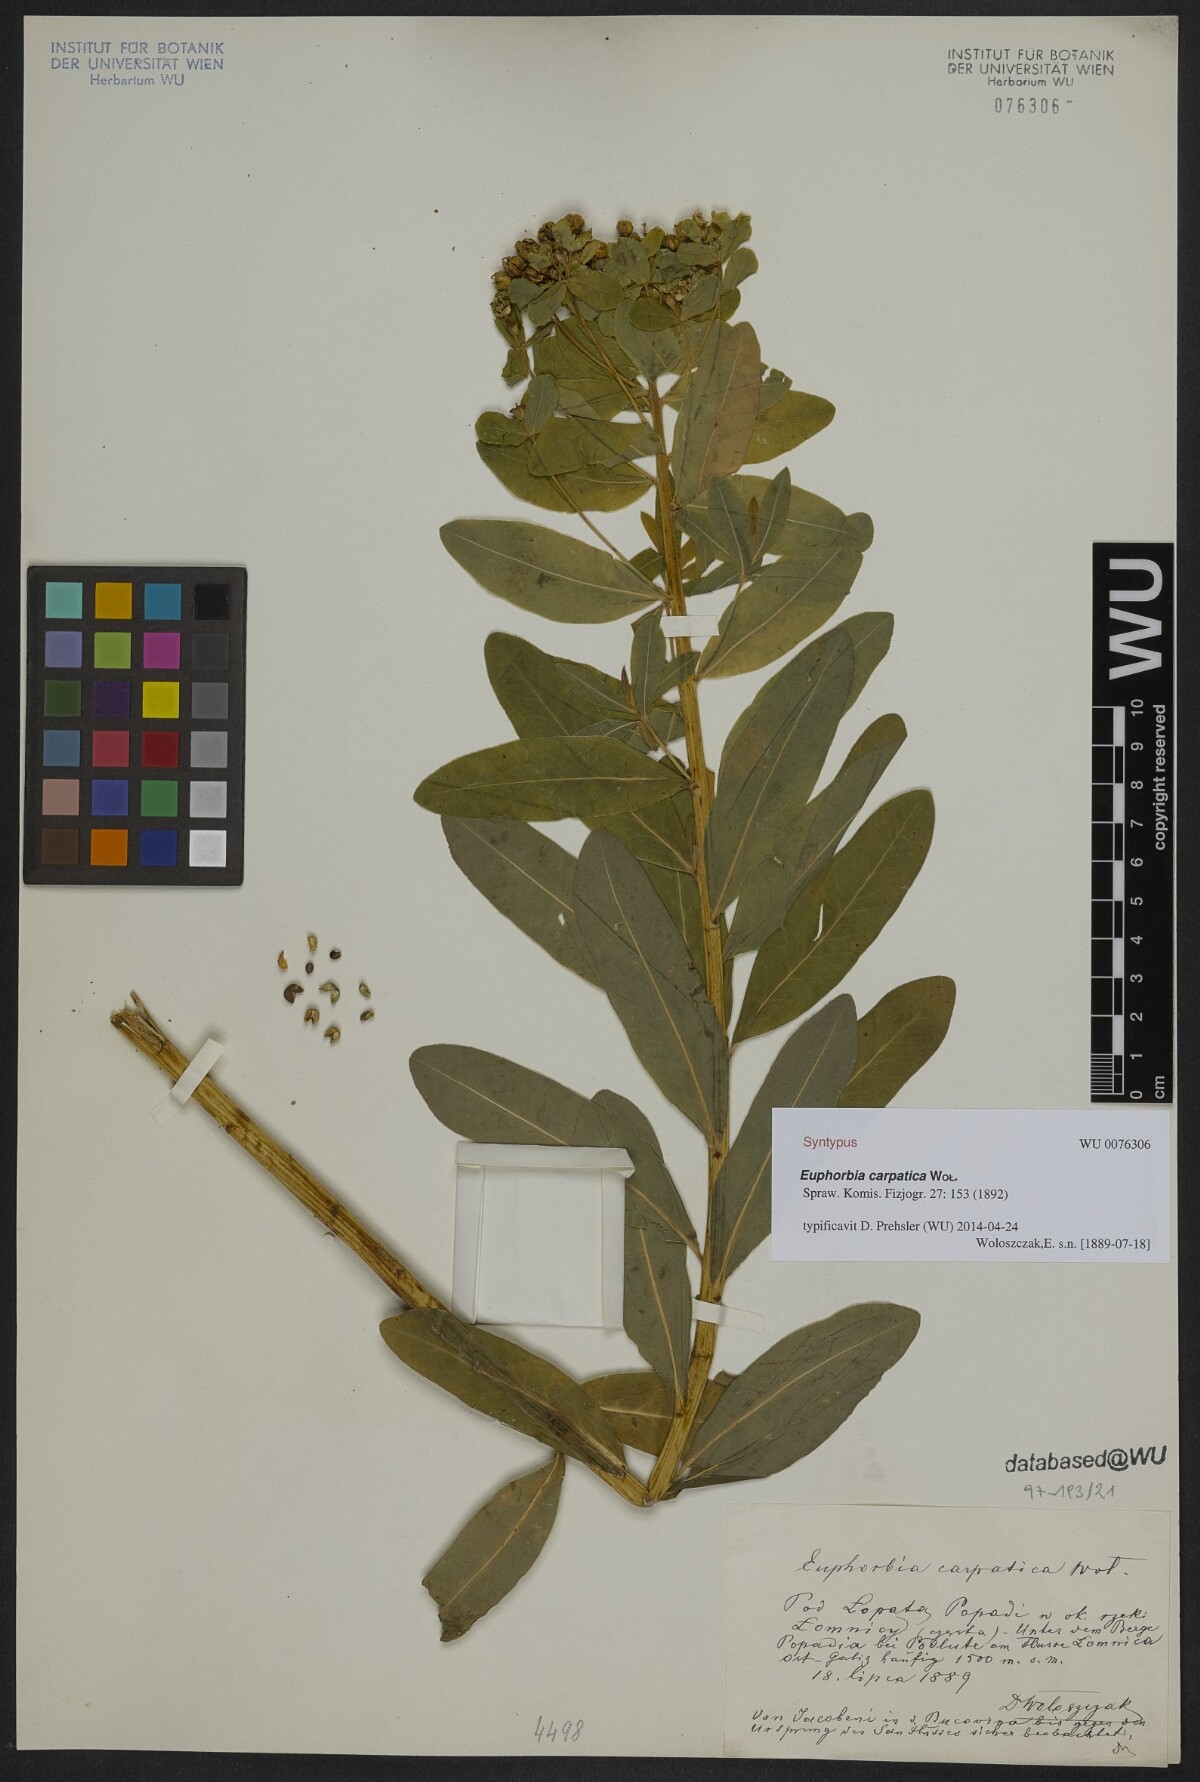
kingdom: Plantae
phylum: Tracheophyta
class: Magnoliopsida
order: Malpighiales
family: Euphorbiaceae
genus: Euphorbia
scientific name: Euphorbia carpatica
